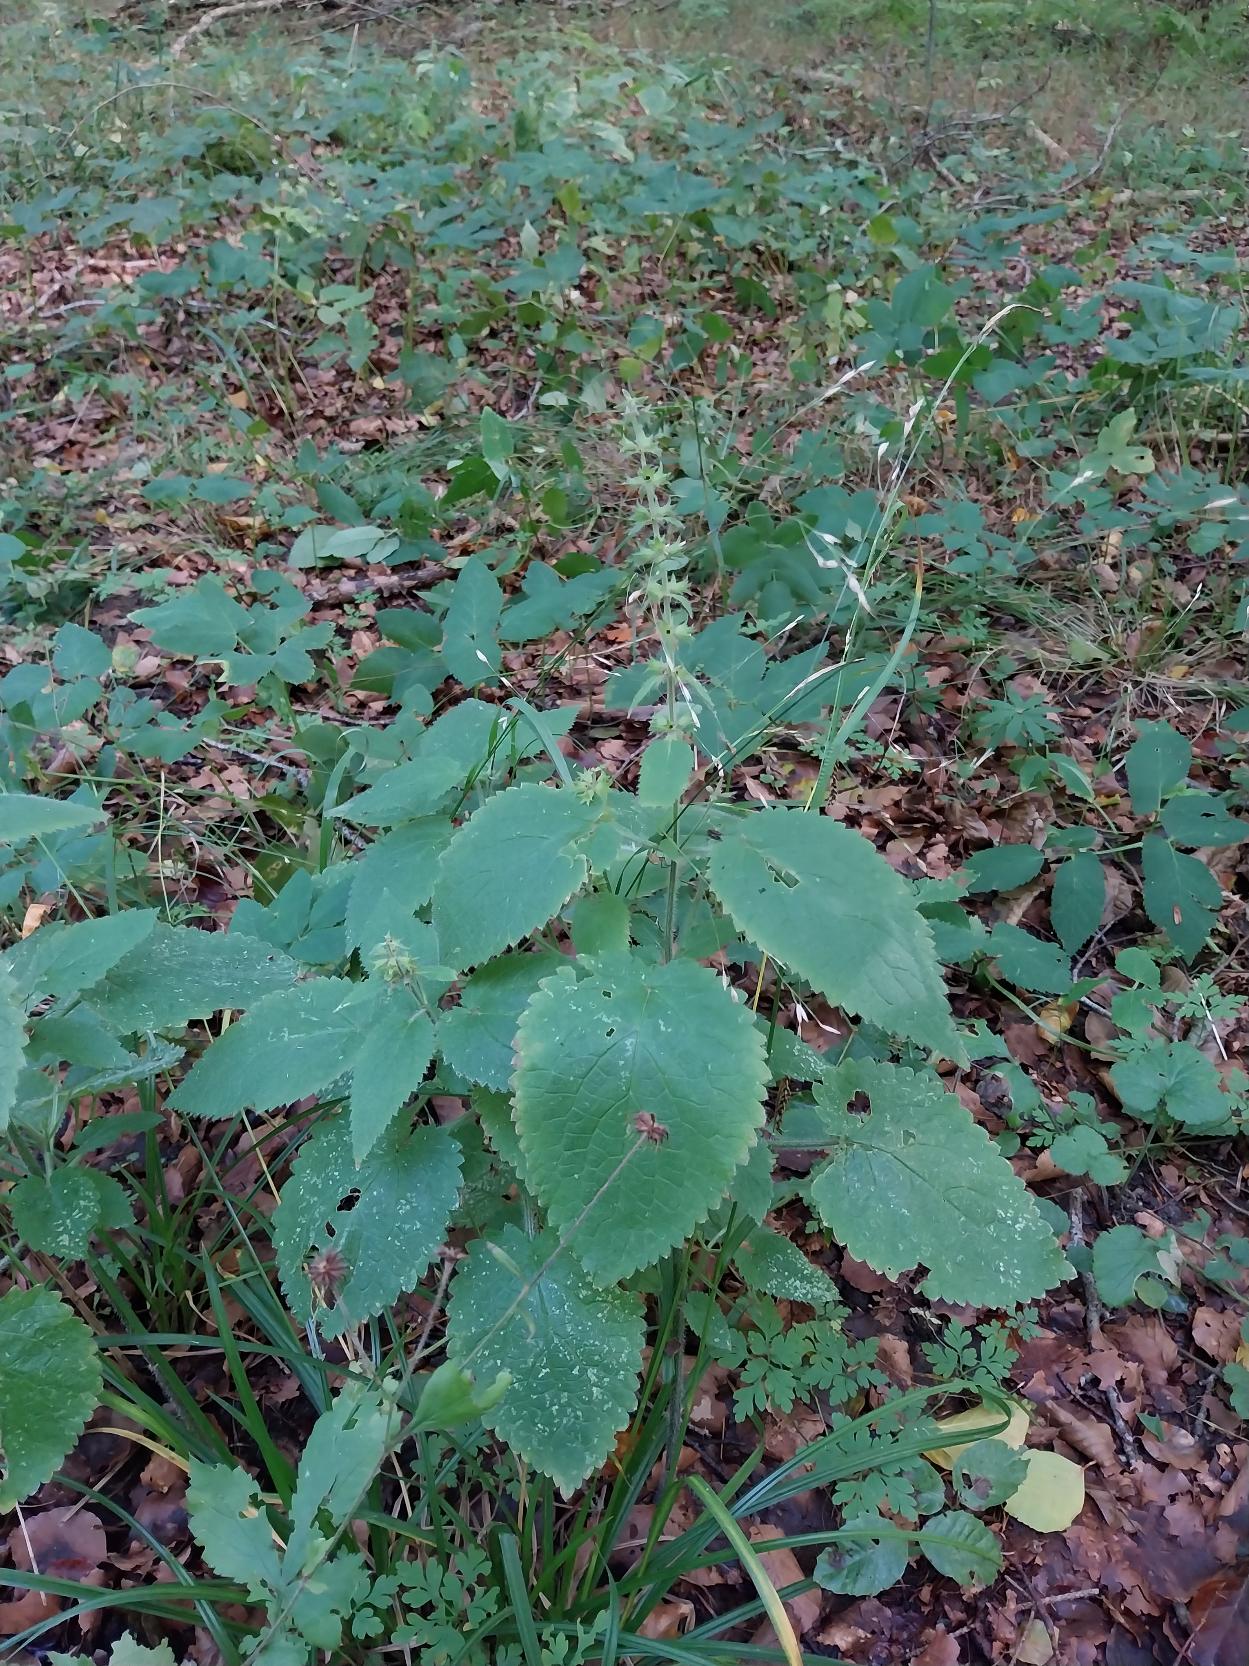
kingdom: Plantae
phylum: Tracheophyta
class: Magnoliopsida
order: Lamiales
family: Lamiaceae
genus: Stachys
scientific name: Stachys sylvatica
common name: Skov-galtetand
